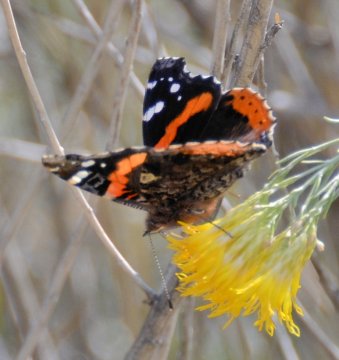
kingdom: Animalia
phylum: Arthropoda
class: Insecta
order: Lepidoptera
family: Nymphalidae
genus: Vanessa
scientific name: Vanessa atalanta
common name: Red Admiral
